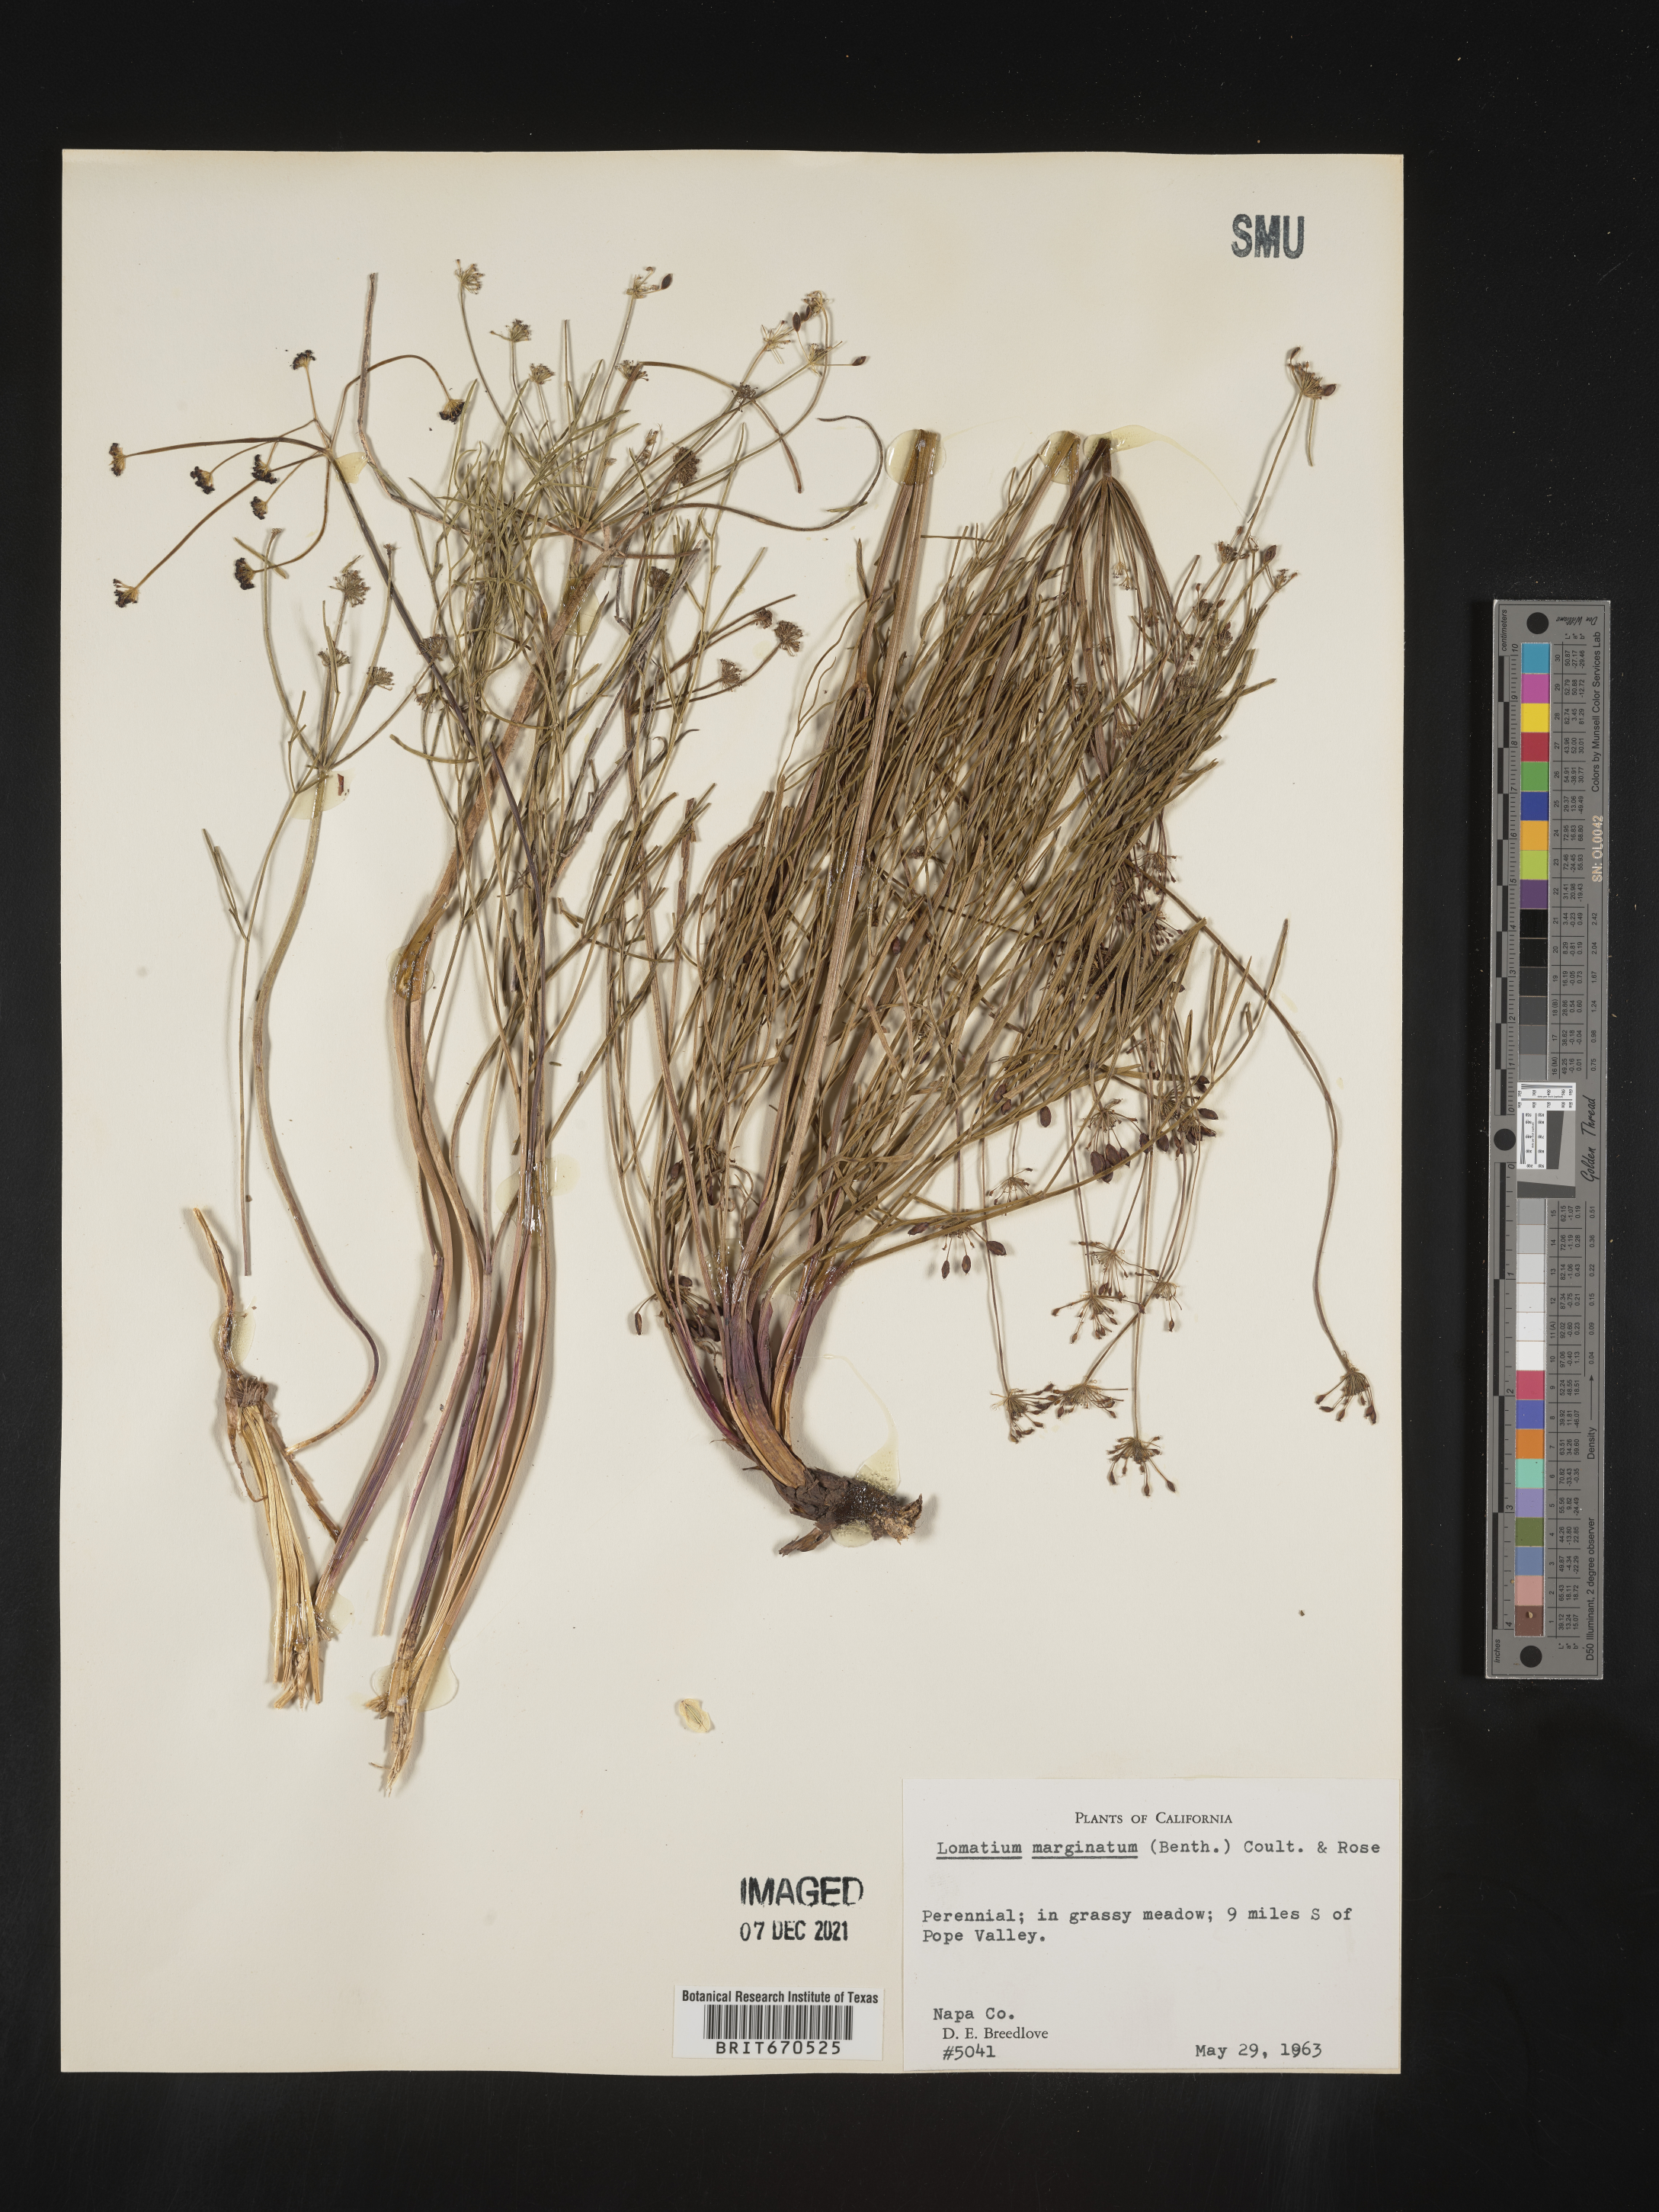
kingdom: Plantae
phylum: Tracheophyta
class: Magnoliopsida
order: Apiales
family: Apiaceae
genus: Lomatium
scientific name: Lomatium marginatum
